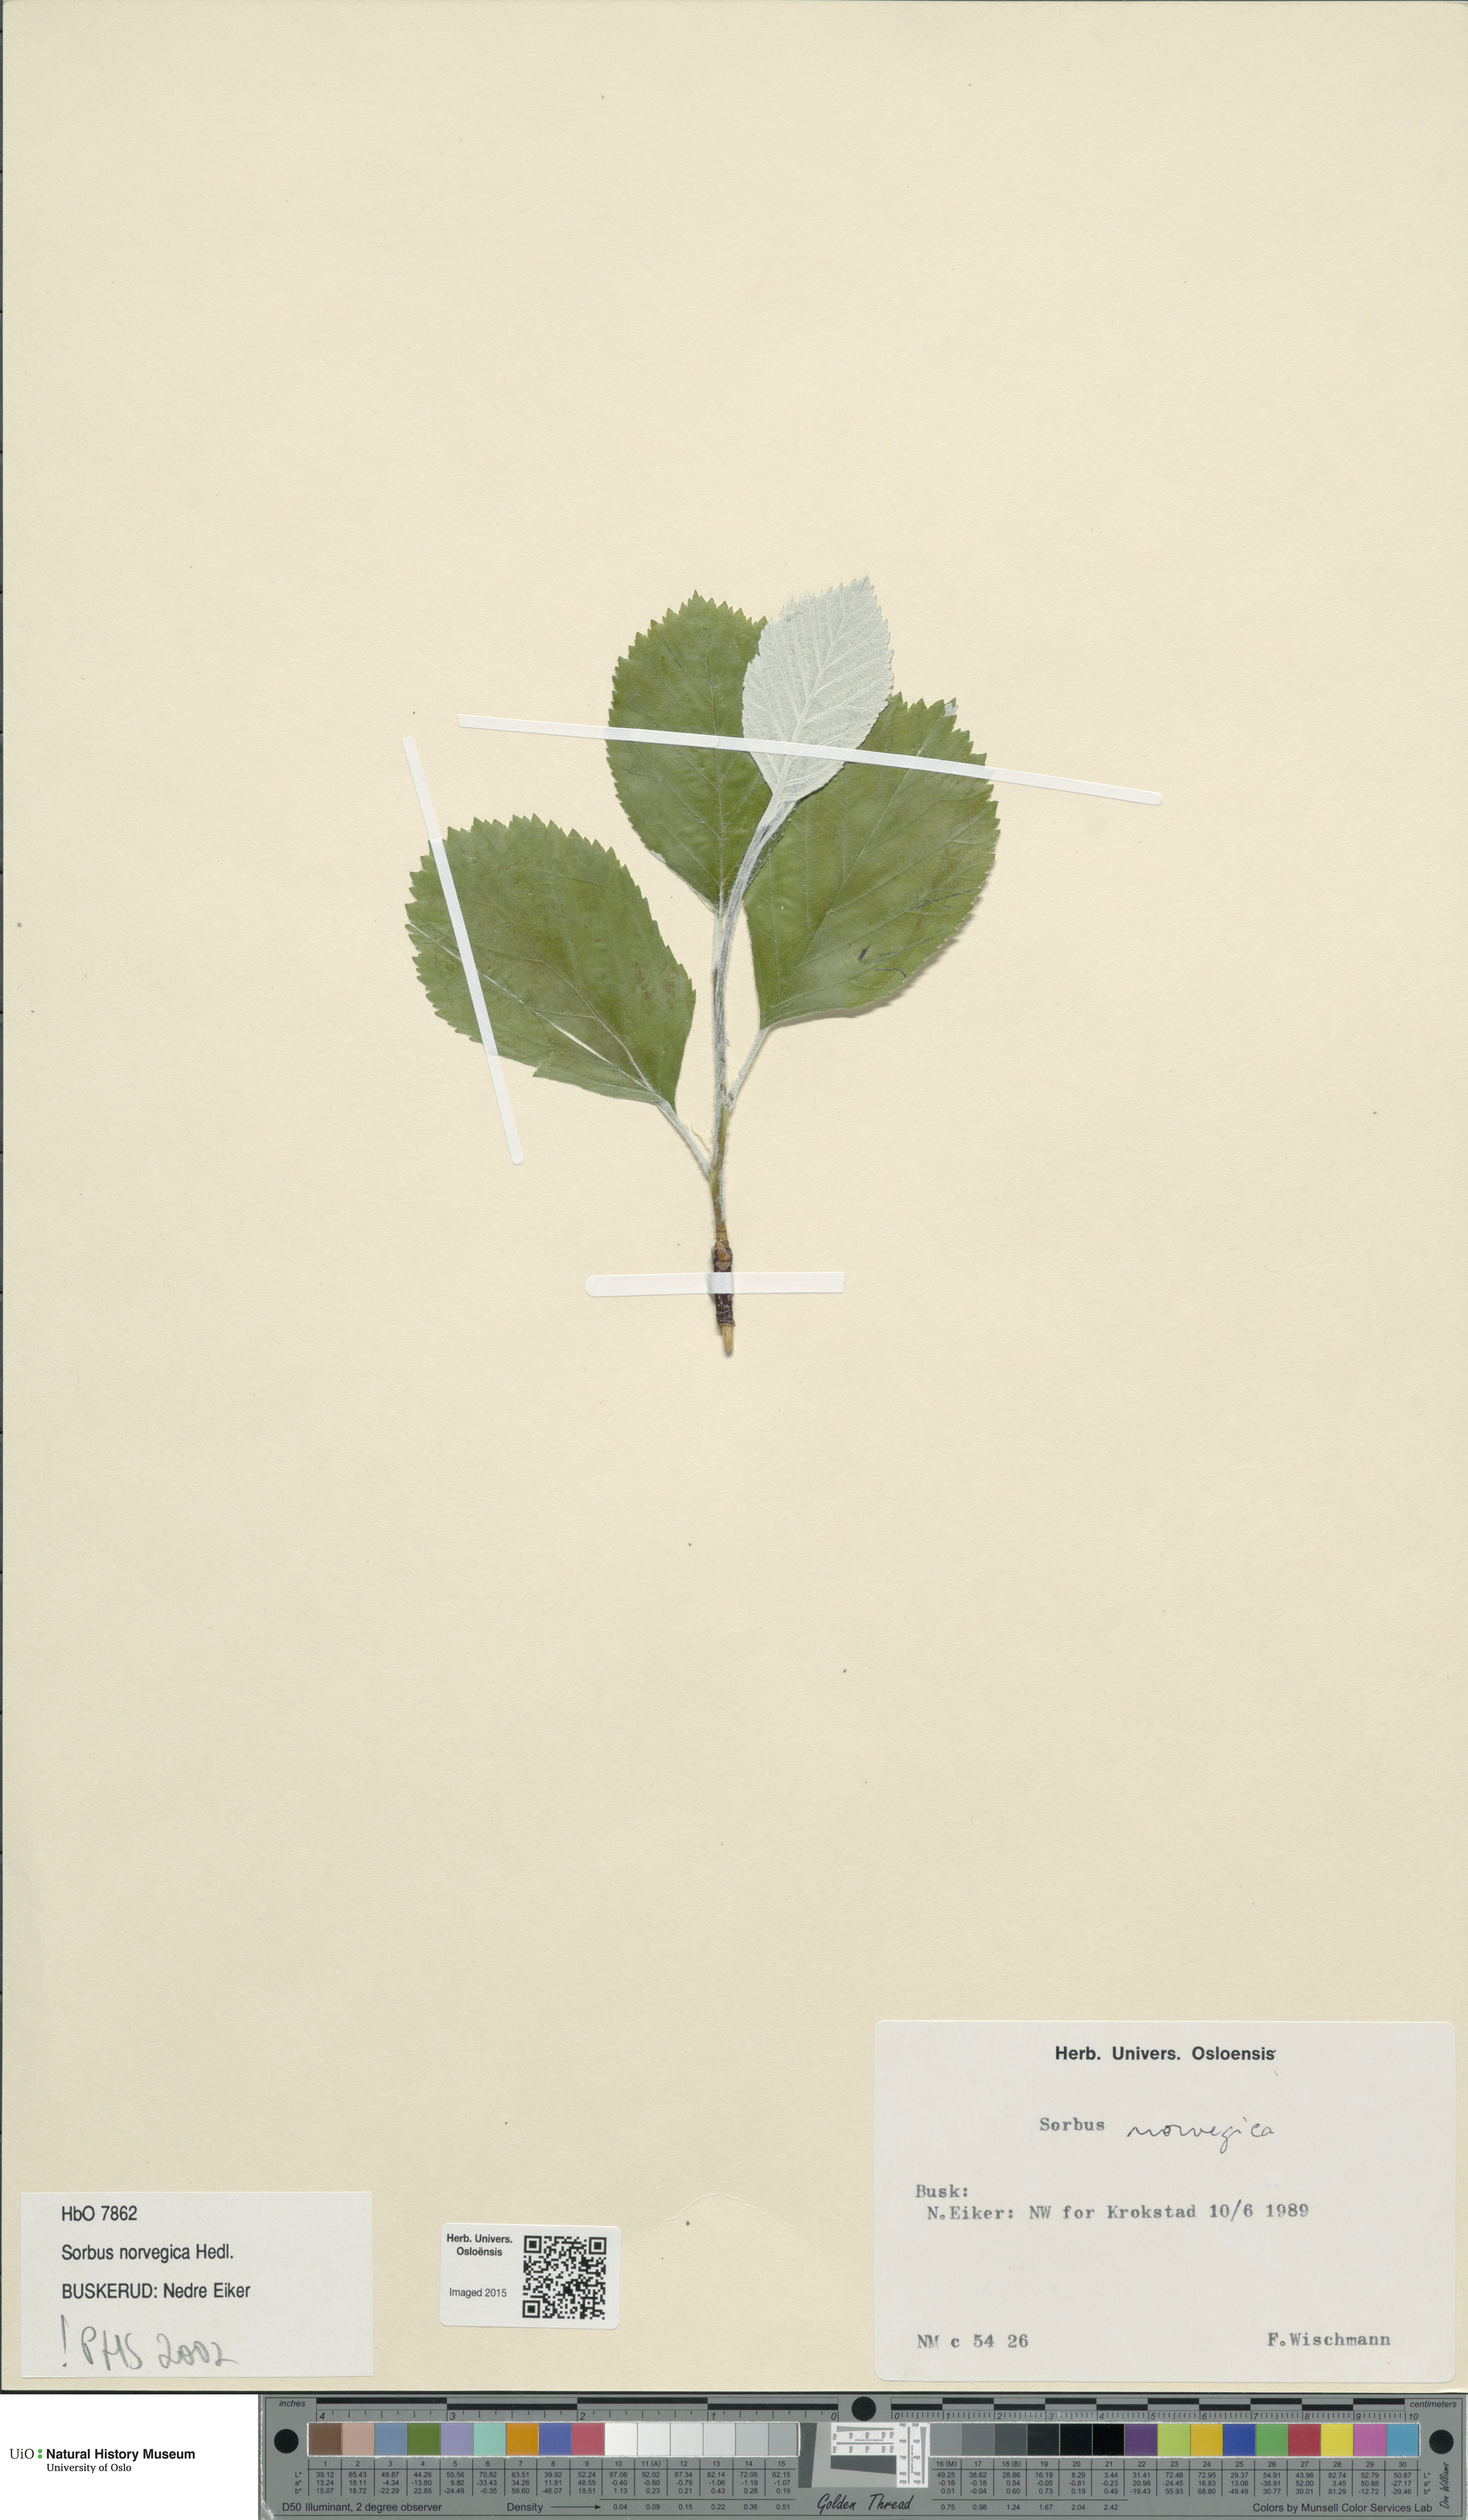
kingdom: Plantae
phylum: Tracheophyta
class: Magnoliopsida
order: Rosales
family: Rosaceae
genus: Aria
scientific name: Aria obtusifolia
